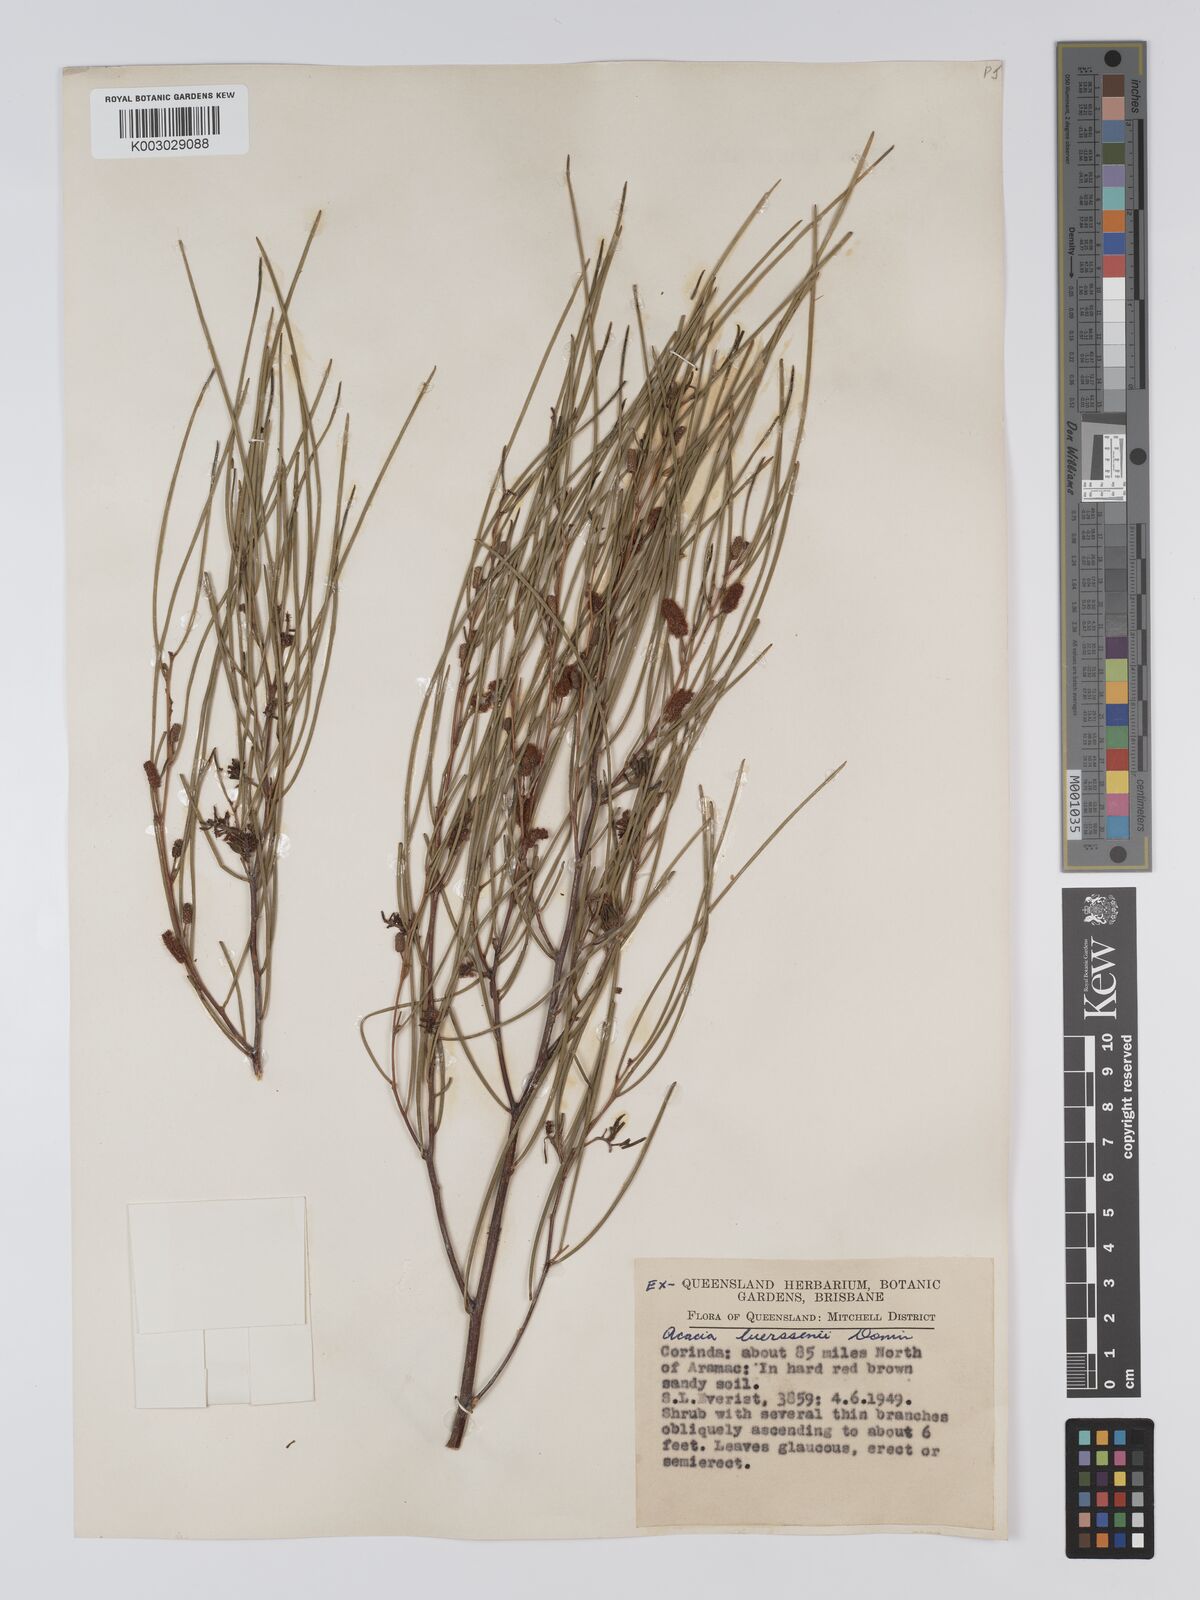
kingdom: Plantae
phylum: Tracheophyta
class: Magnoliopsida
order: Fabales
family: Fabaceae
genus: Acacia
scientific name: Acacia tenuissima
